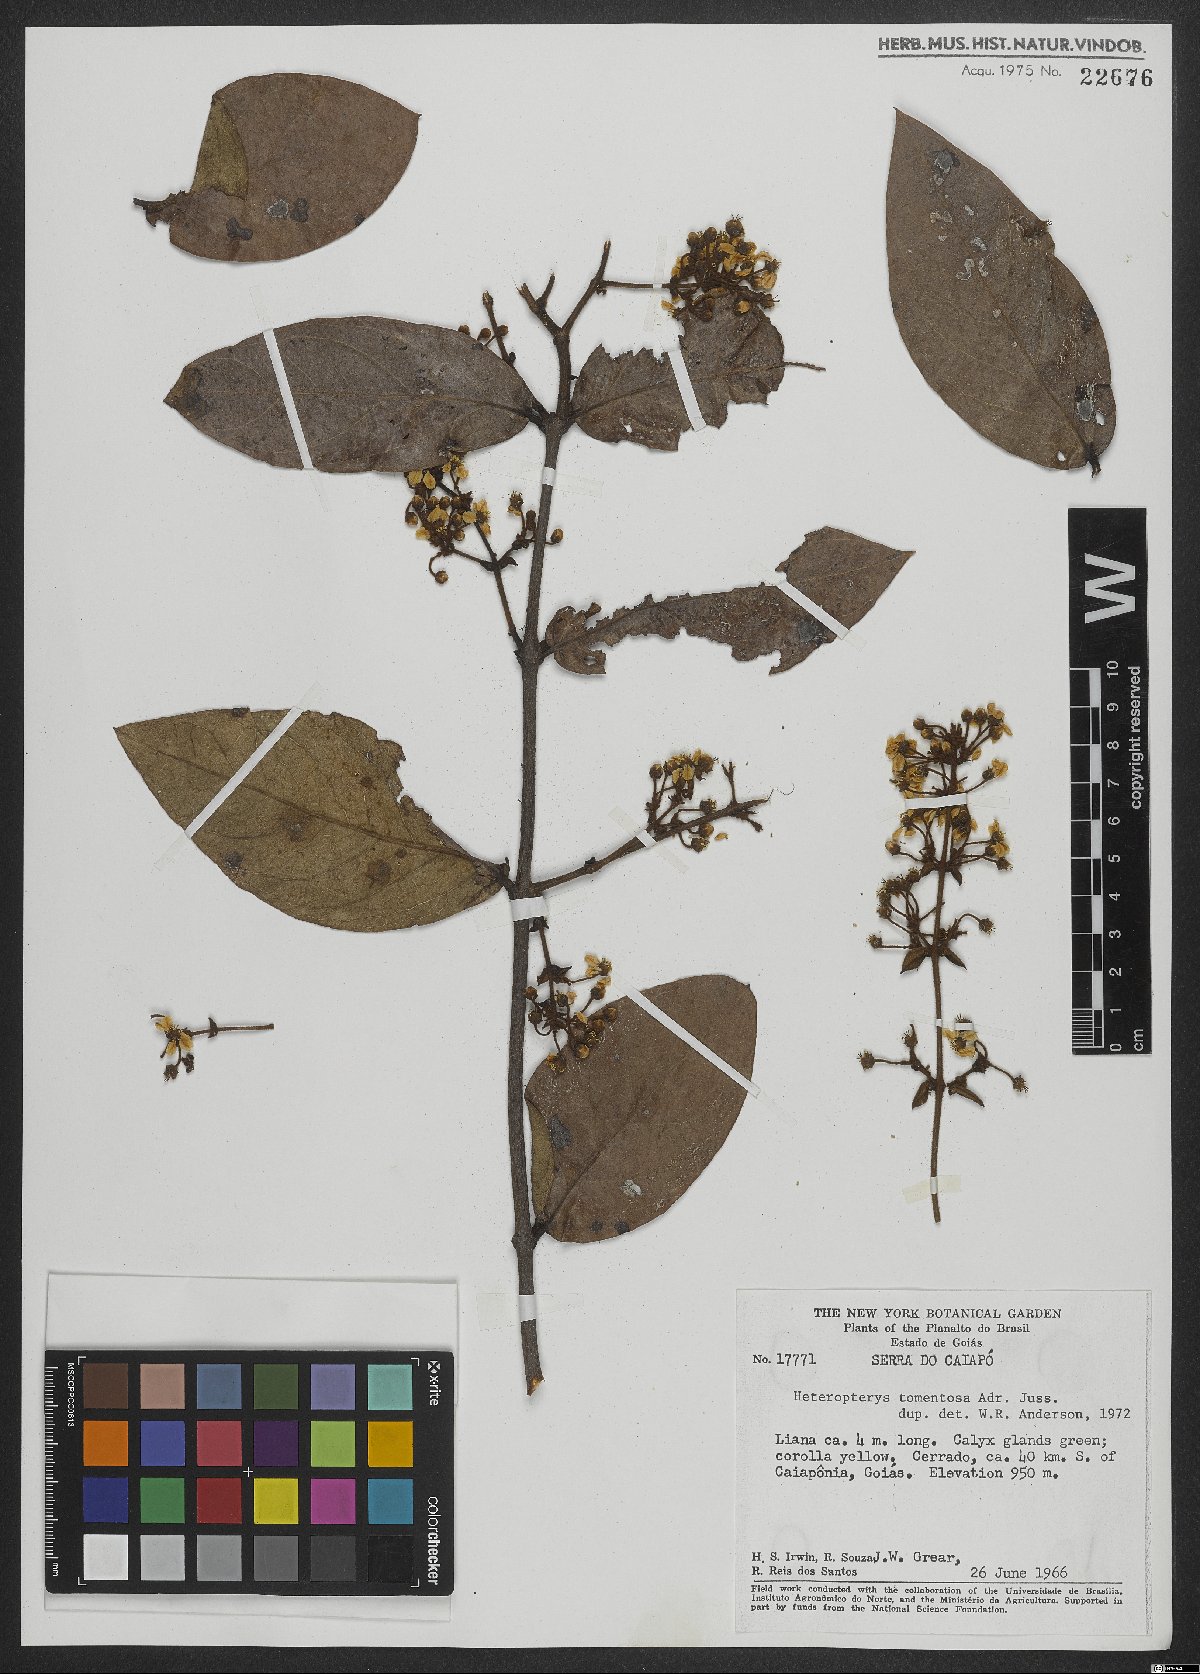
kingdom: Plantae
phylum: Tracheophyta
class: Magnoliopsida
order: Malpighiales
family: Malpighiaceae
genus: Heteropterys
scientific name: Heteropterys tomentosa
